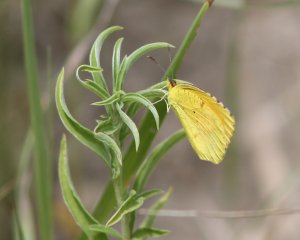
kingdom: Animalia
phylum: Arthropoda
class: Insecta
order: Lepidoptera
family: Pieridae
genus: Nathalis
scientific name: Nathalis iole
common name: Dainty Sulphur
